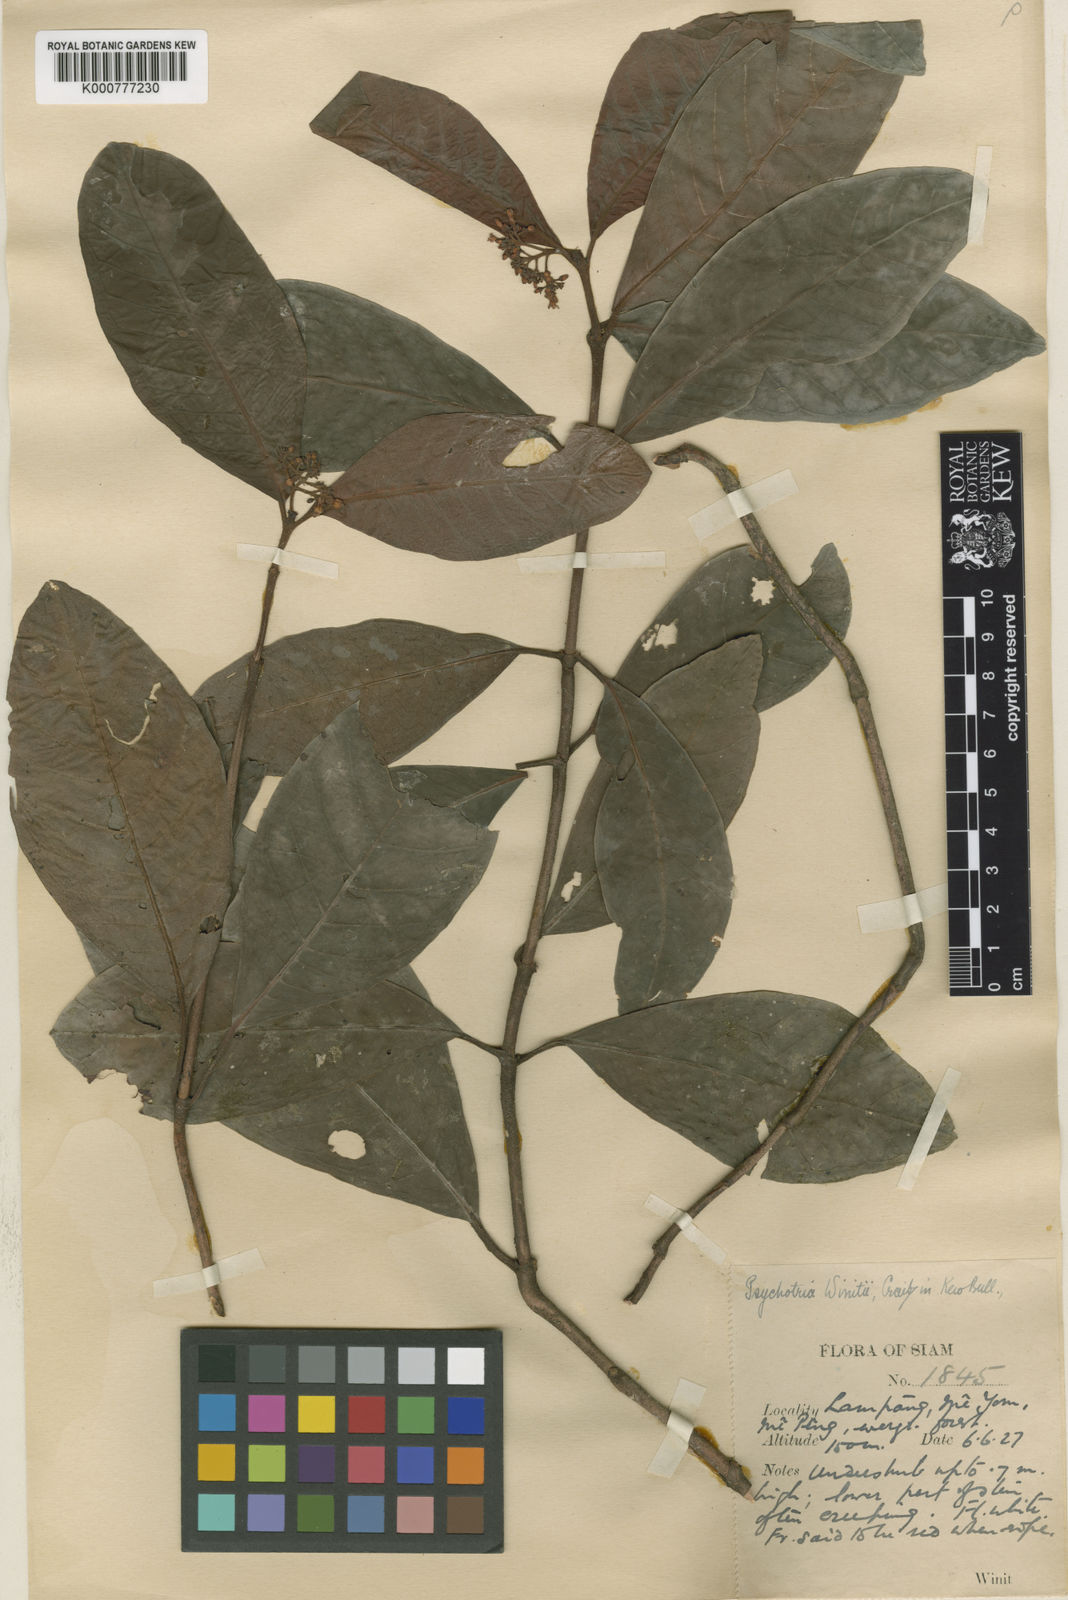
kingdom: Plantae
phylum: Tracheophyta
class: Magnoliopsida
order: Gentianales
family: Rubiaceae
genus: Psychotria
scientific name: Psychotria calocarpa
